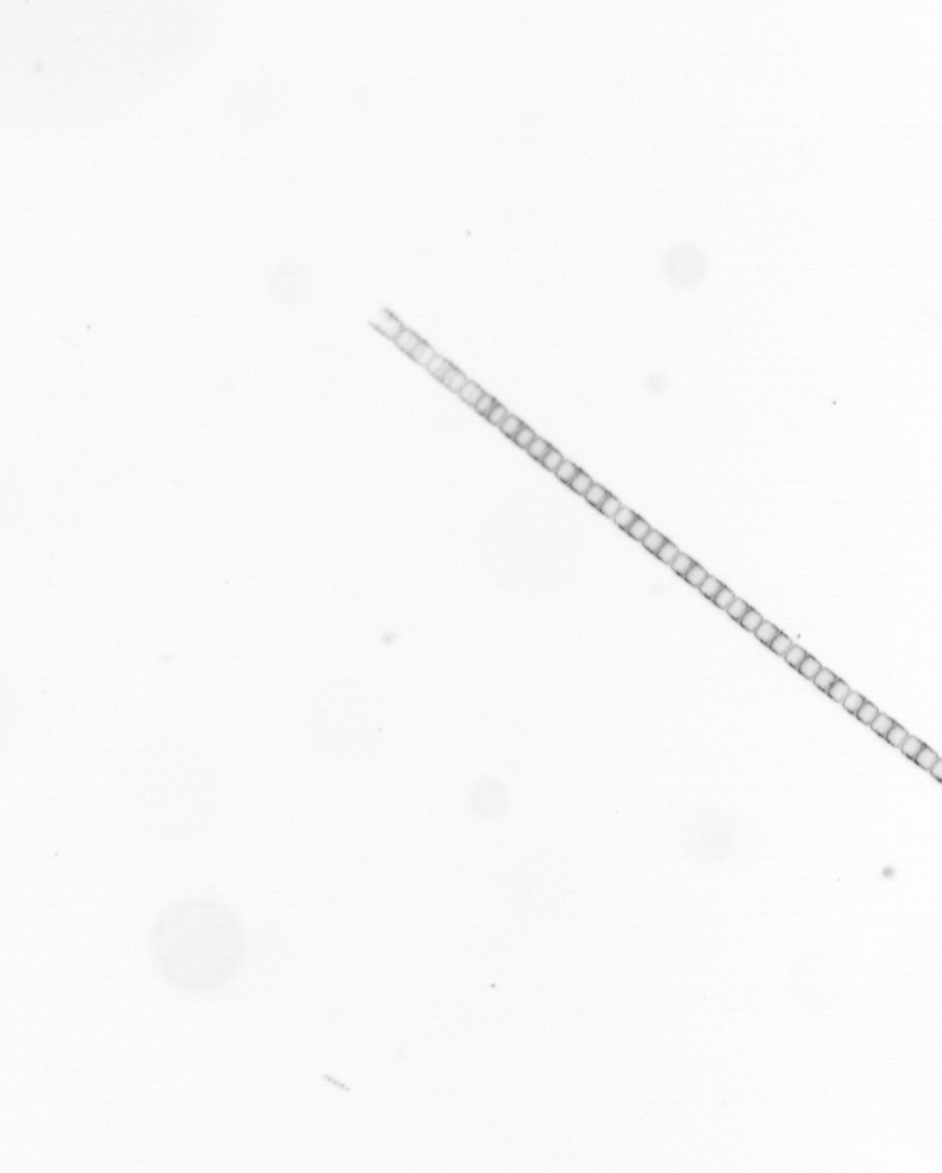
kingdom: Chromista
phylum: Ochrophyta
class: Bacillariophyceae
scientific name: Bacillariophyceae
